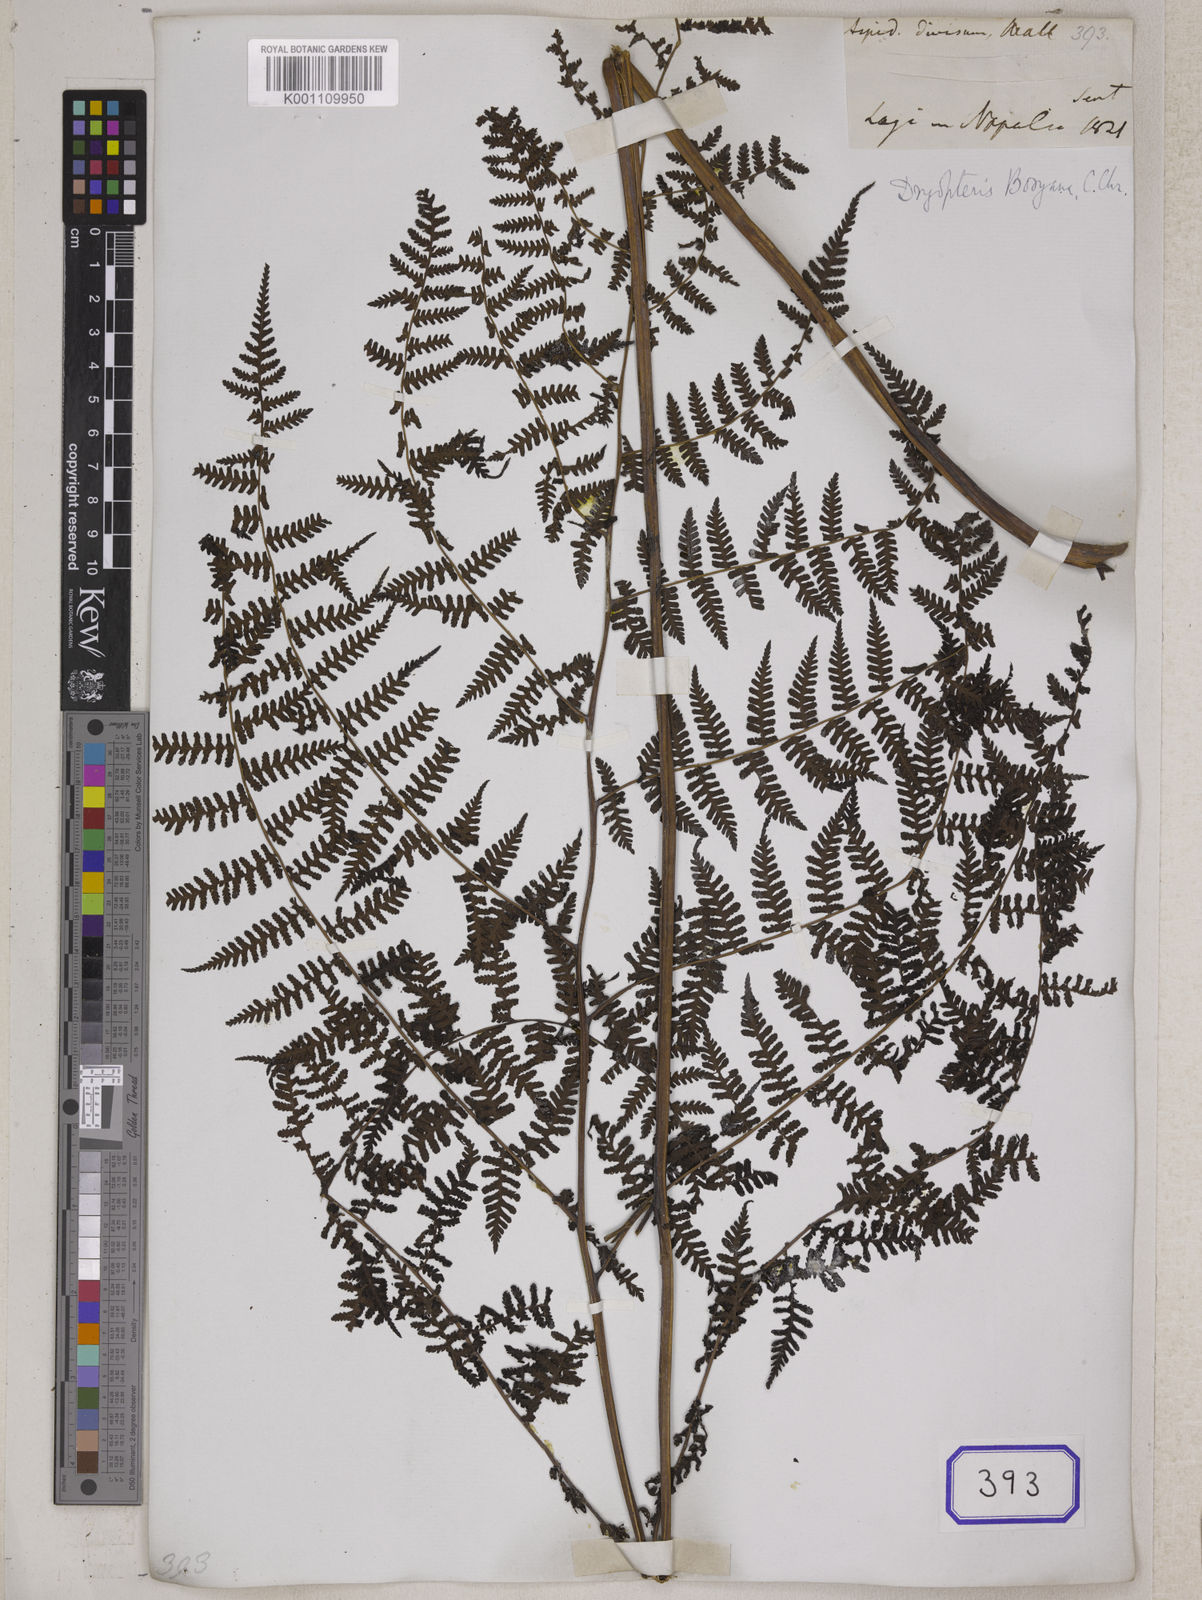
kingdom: Plantae
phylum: Tracheophyta
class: Polypodiopsida
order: Polypodiales
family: Athyriaceae
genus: Deparia
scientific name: Deparia boryana
